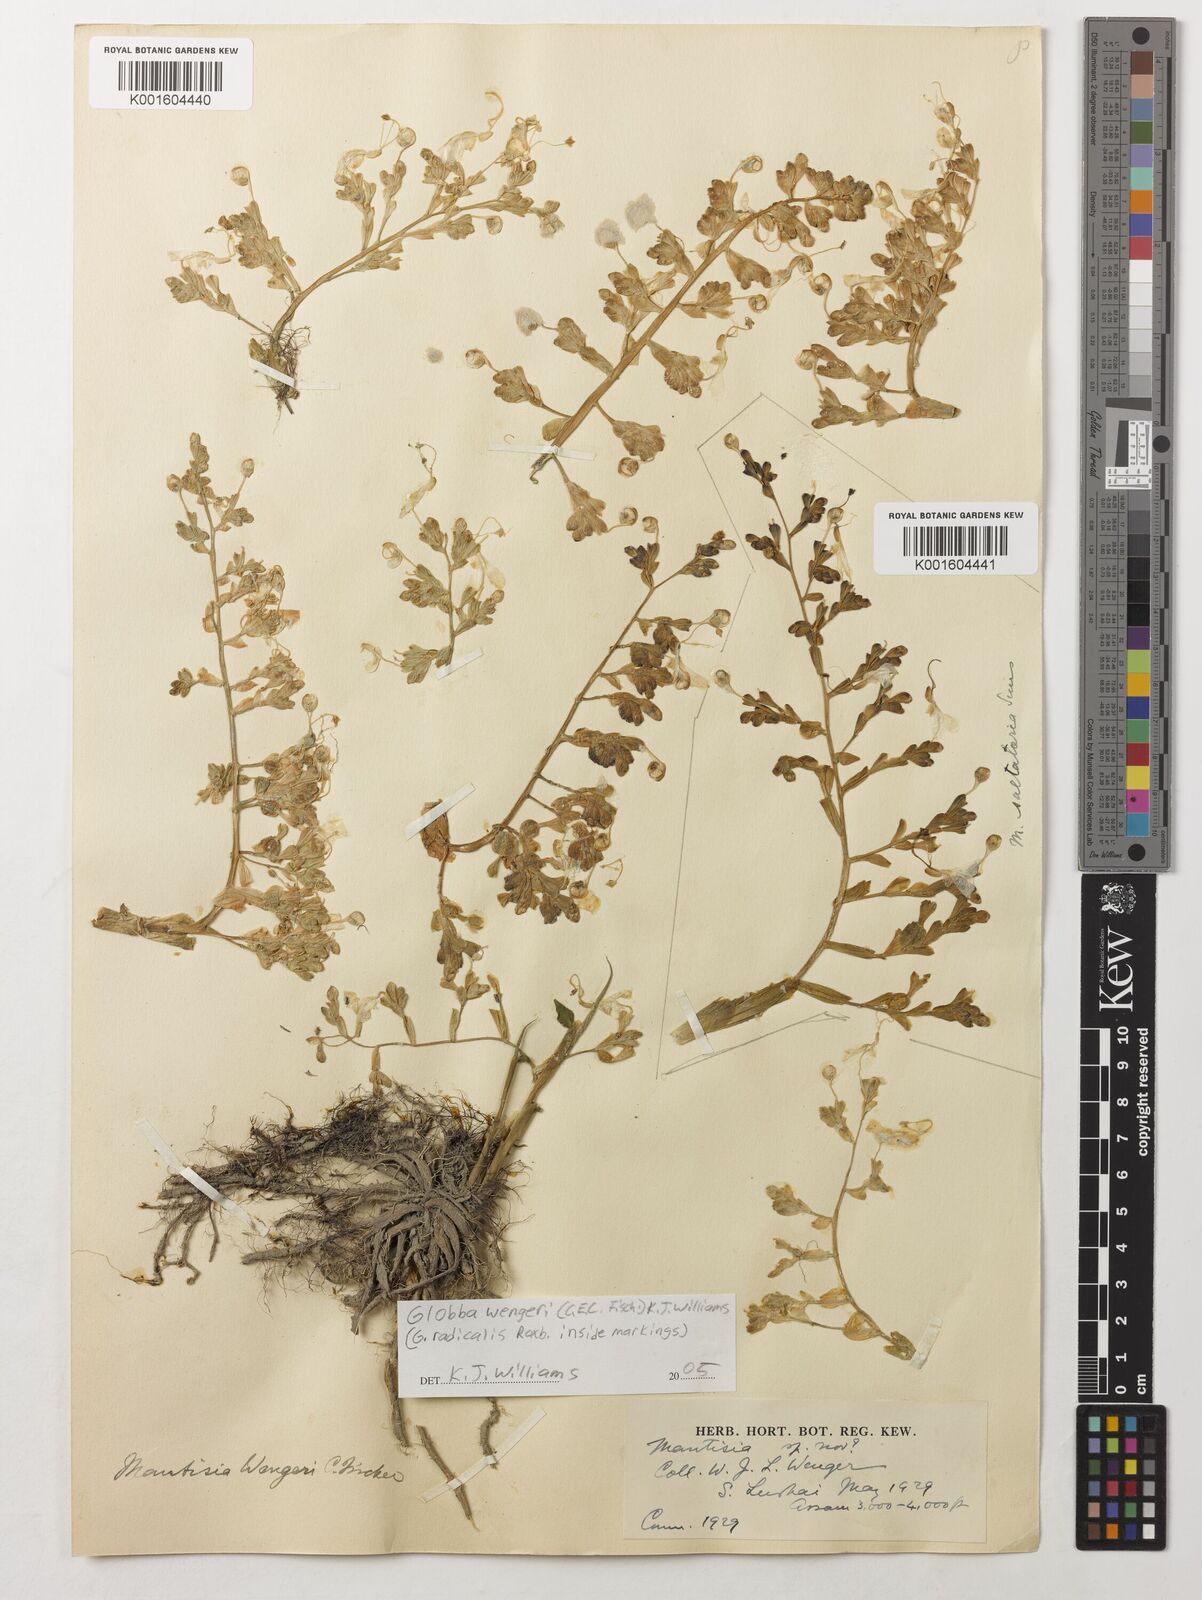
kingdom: Plantae
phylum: Tracheophyta
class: Liliopsida
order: Zingiberales
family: Zingiberaceae
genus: Globba
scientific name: Globba wengeri
